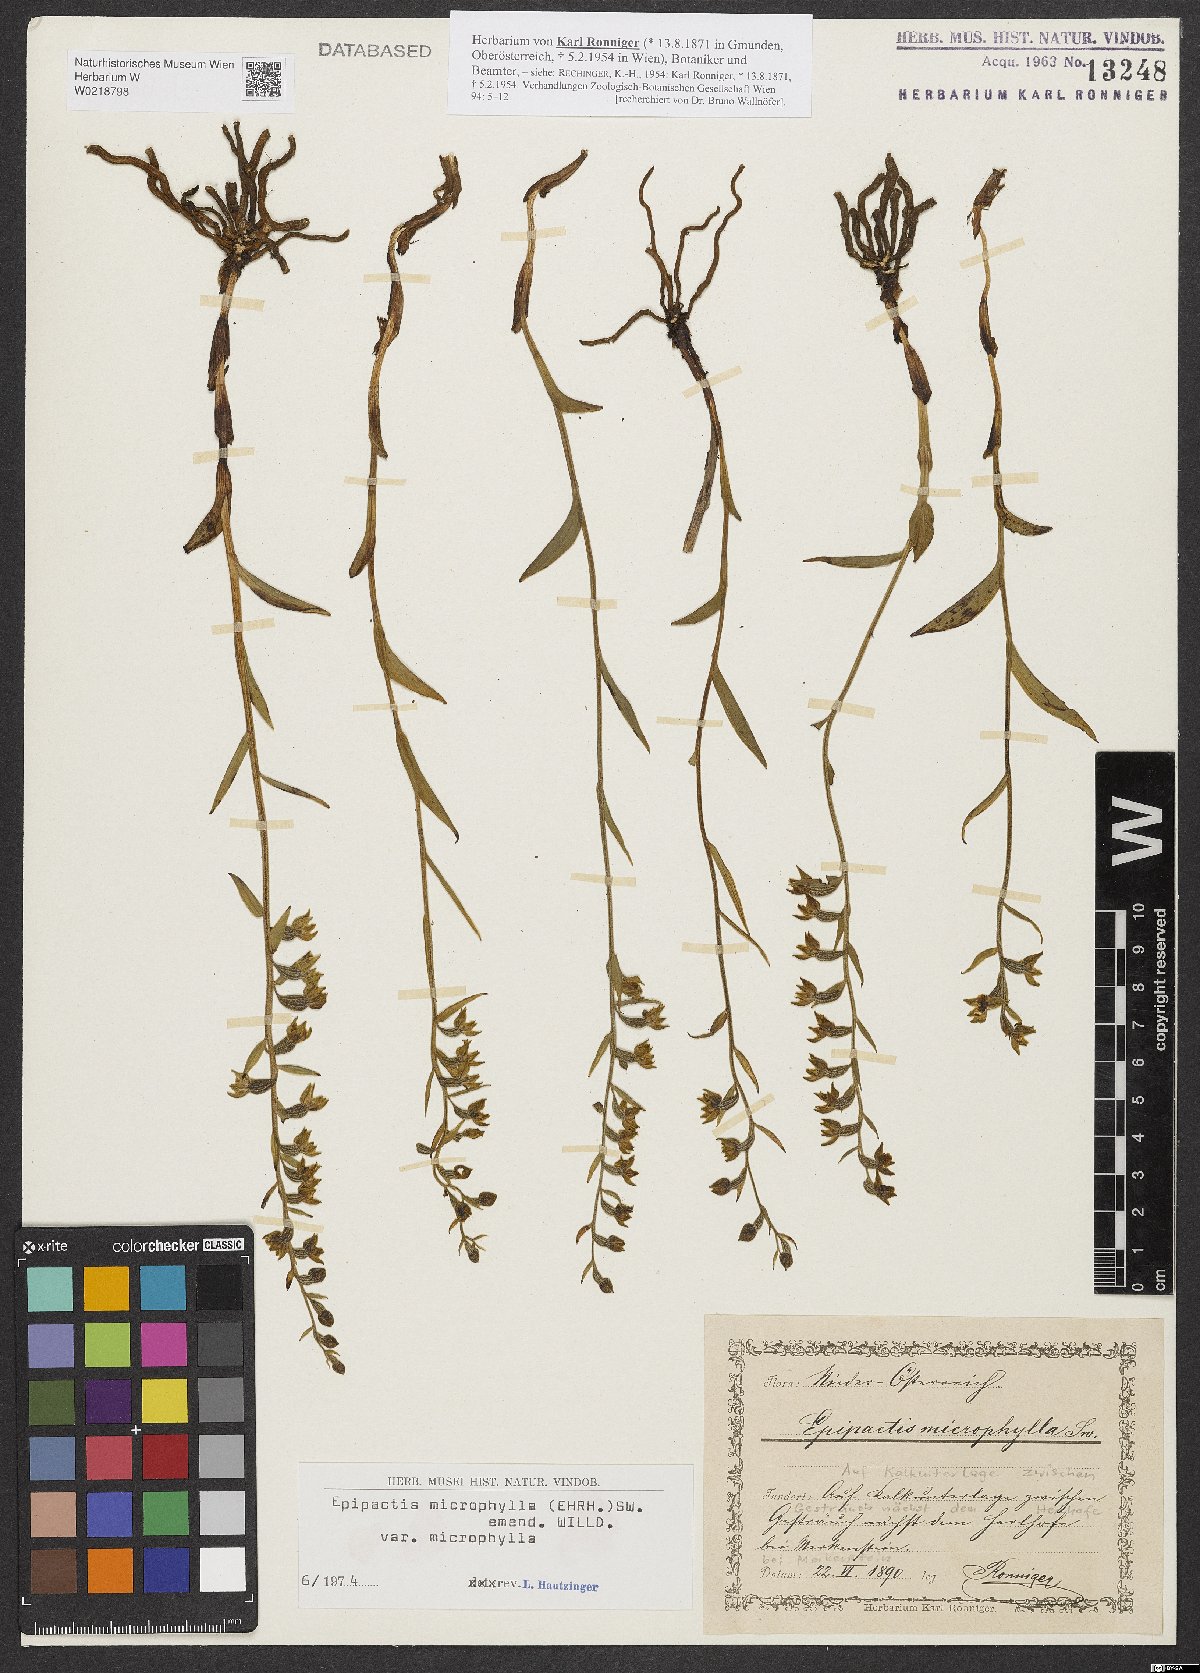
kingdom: Plantae
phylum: Tracheophyta
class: Liliopsida
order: Asparagales
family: Orchidaceae
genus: Epipactis
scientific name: Epipactis microphylla
